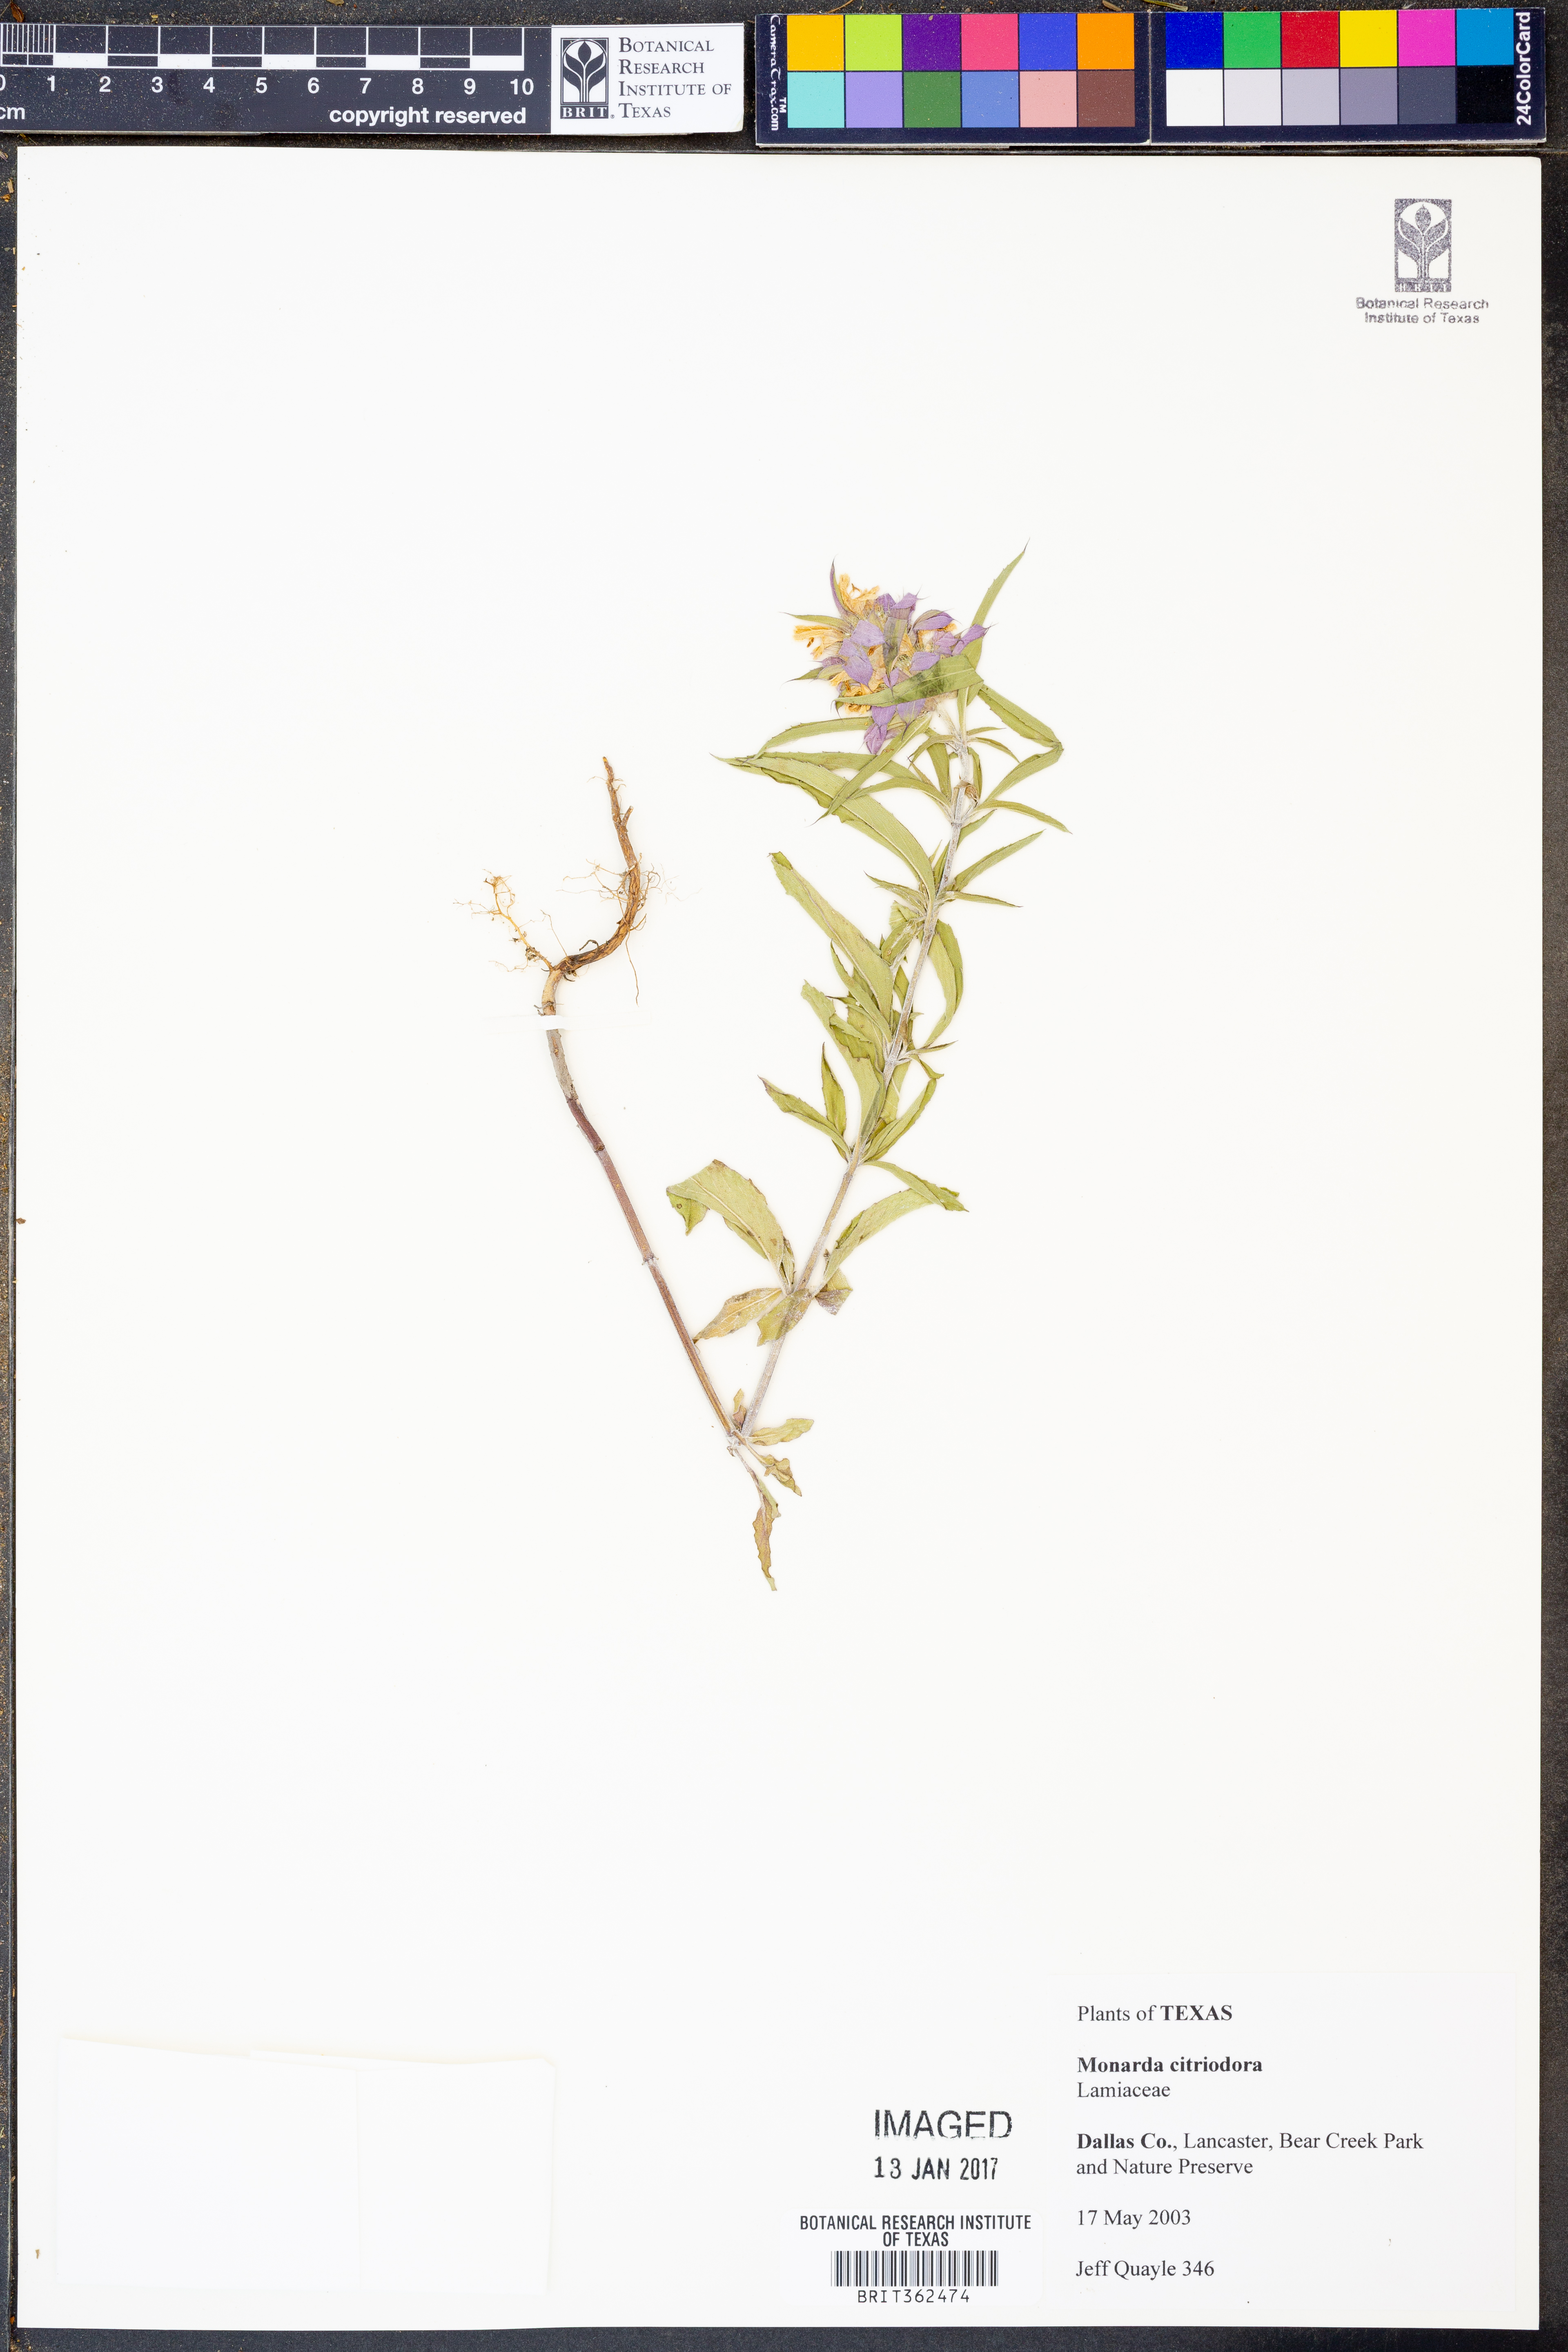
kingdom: Plantae
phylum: Tracheophyta
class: Magnoliopsida
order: Lamiales
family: Lamiaceae
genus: Monarda
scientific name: Monarda citriodora
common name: Lemon beebalm
